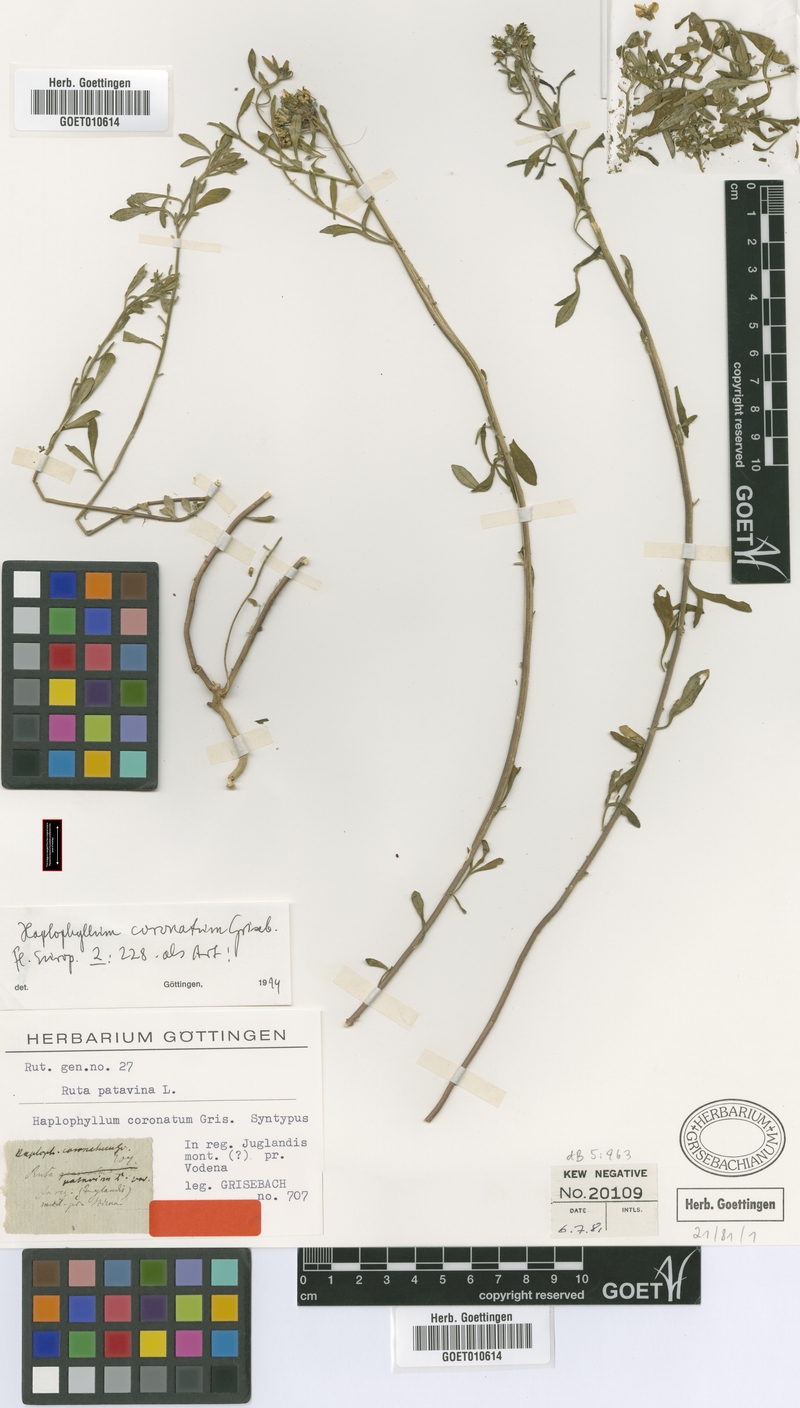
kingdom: Plantae
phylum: Tracheophyta
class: Magnoliopsida
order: Sapindales
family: Rutaceae
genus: Haplophyllum
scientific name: Haplophyllum patavinum
